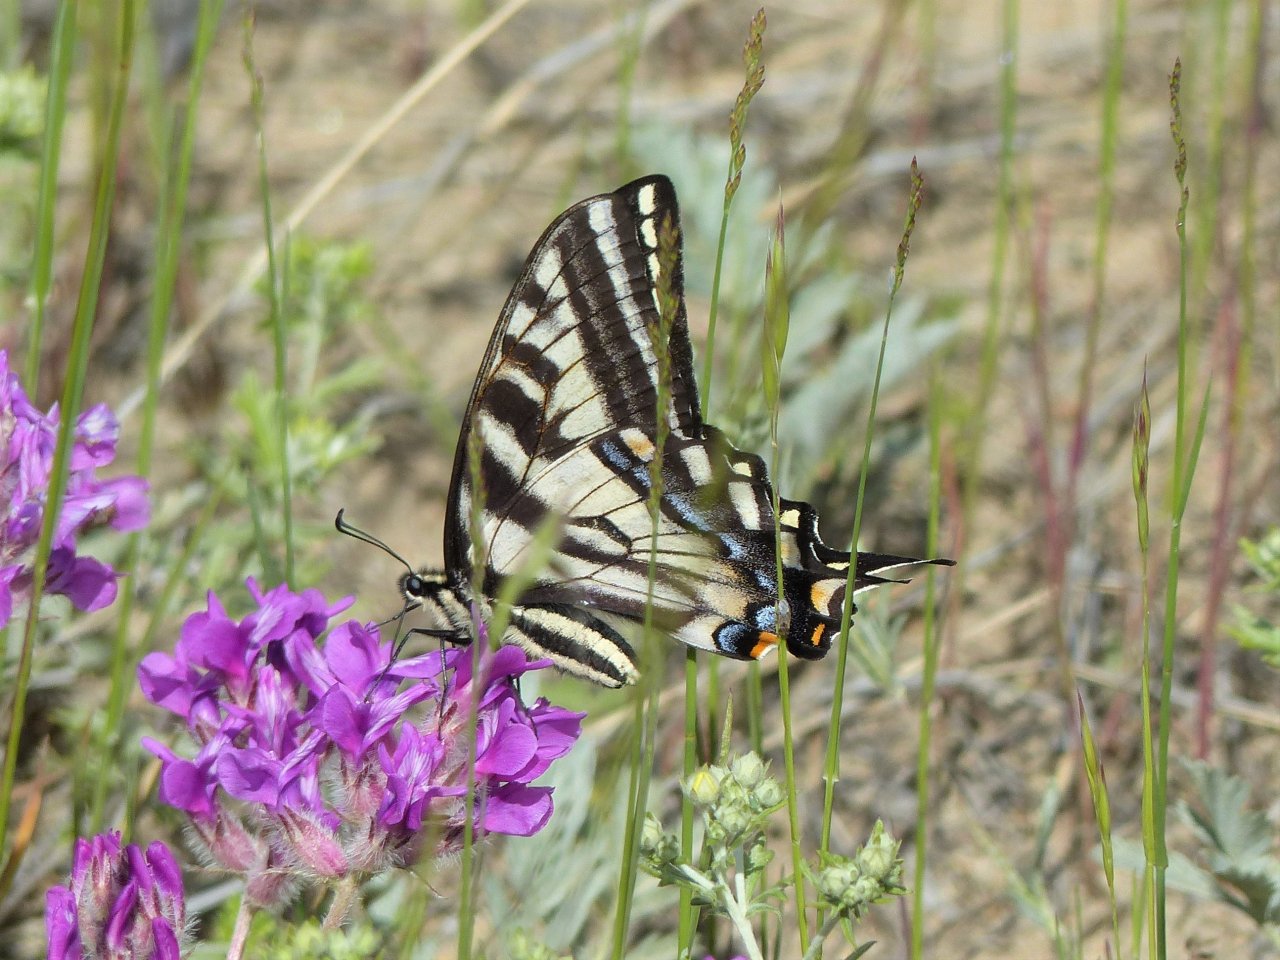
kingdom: Animalia
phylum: Arthropoda
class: Insecta
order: Lepidoptera
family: Papilionidae
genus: Pterourus
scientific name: Pterourus eurymedon
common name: Pale Swallowtail
